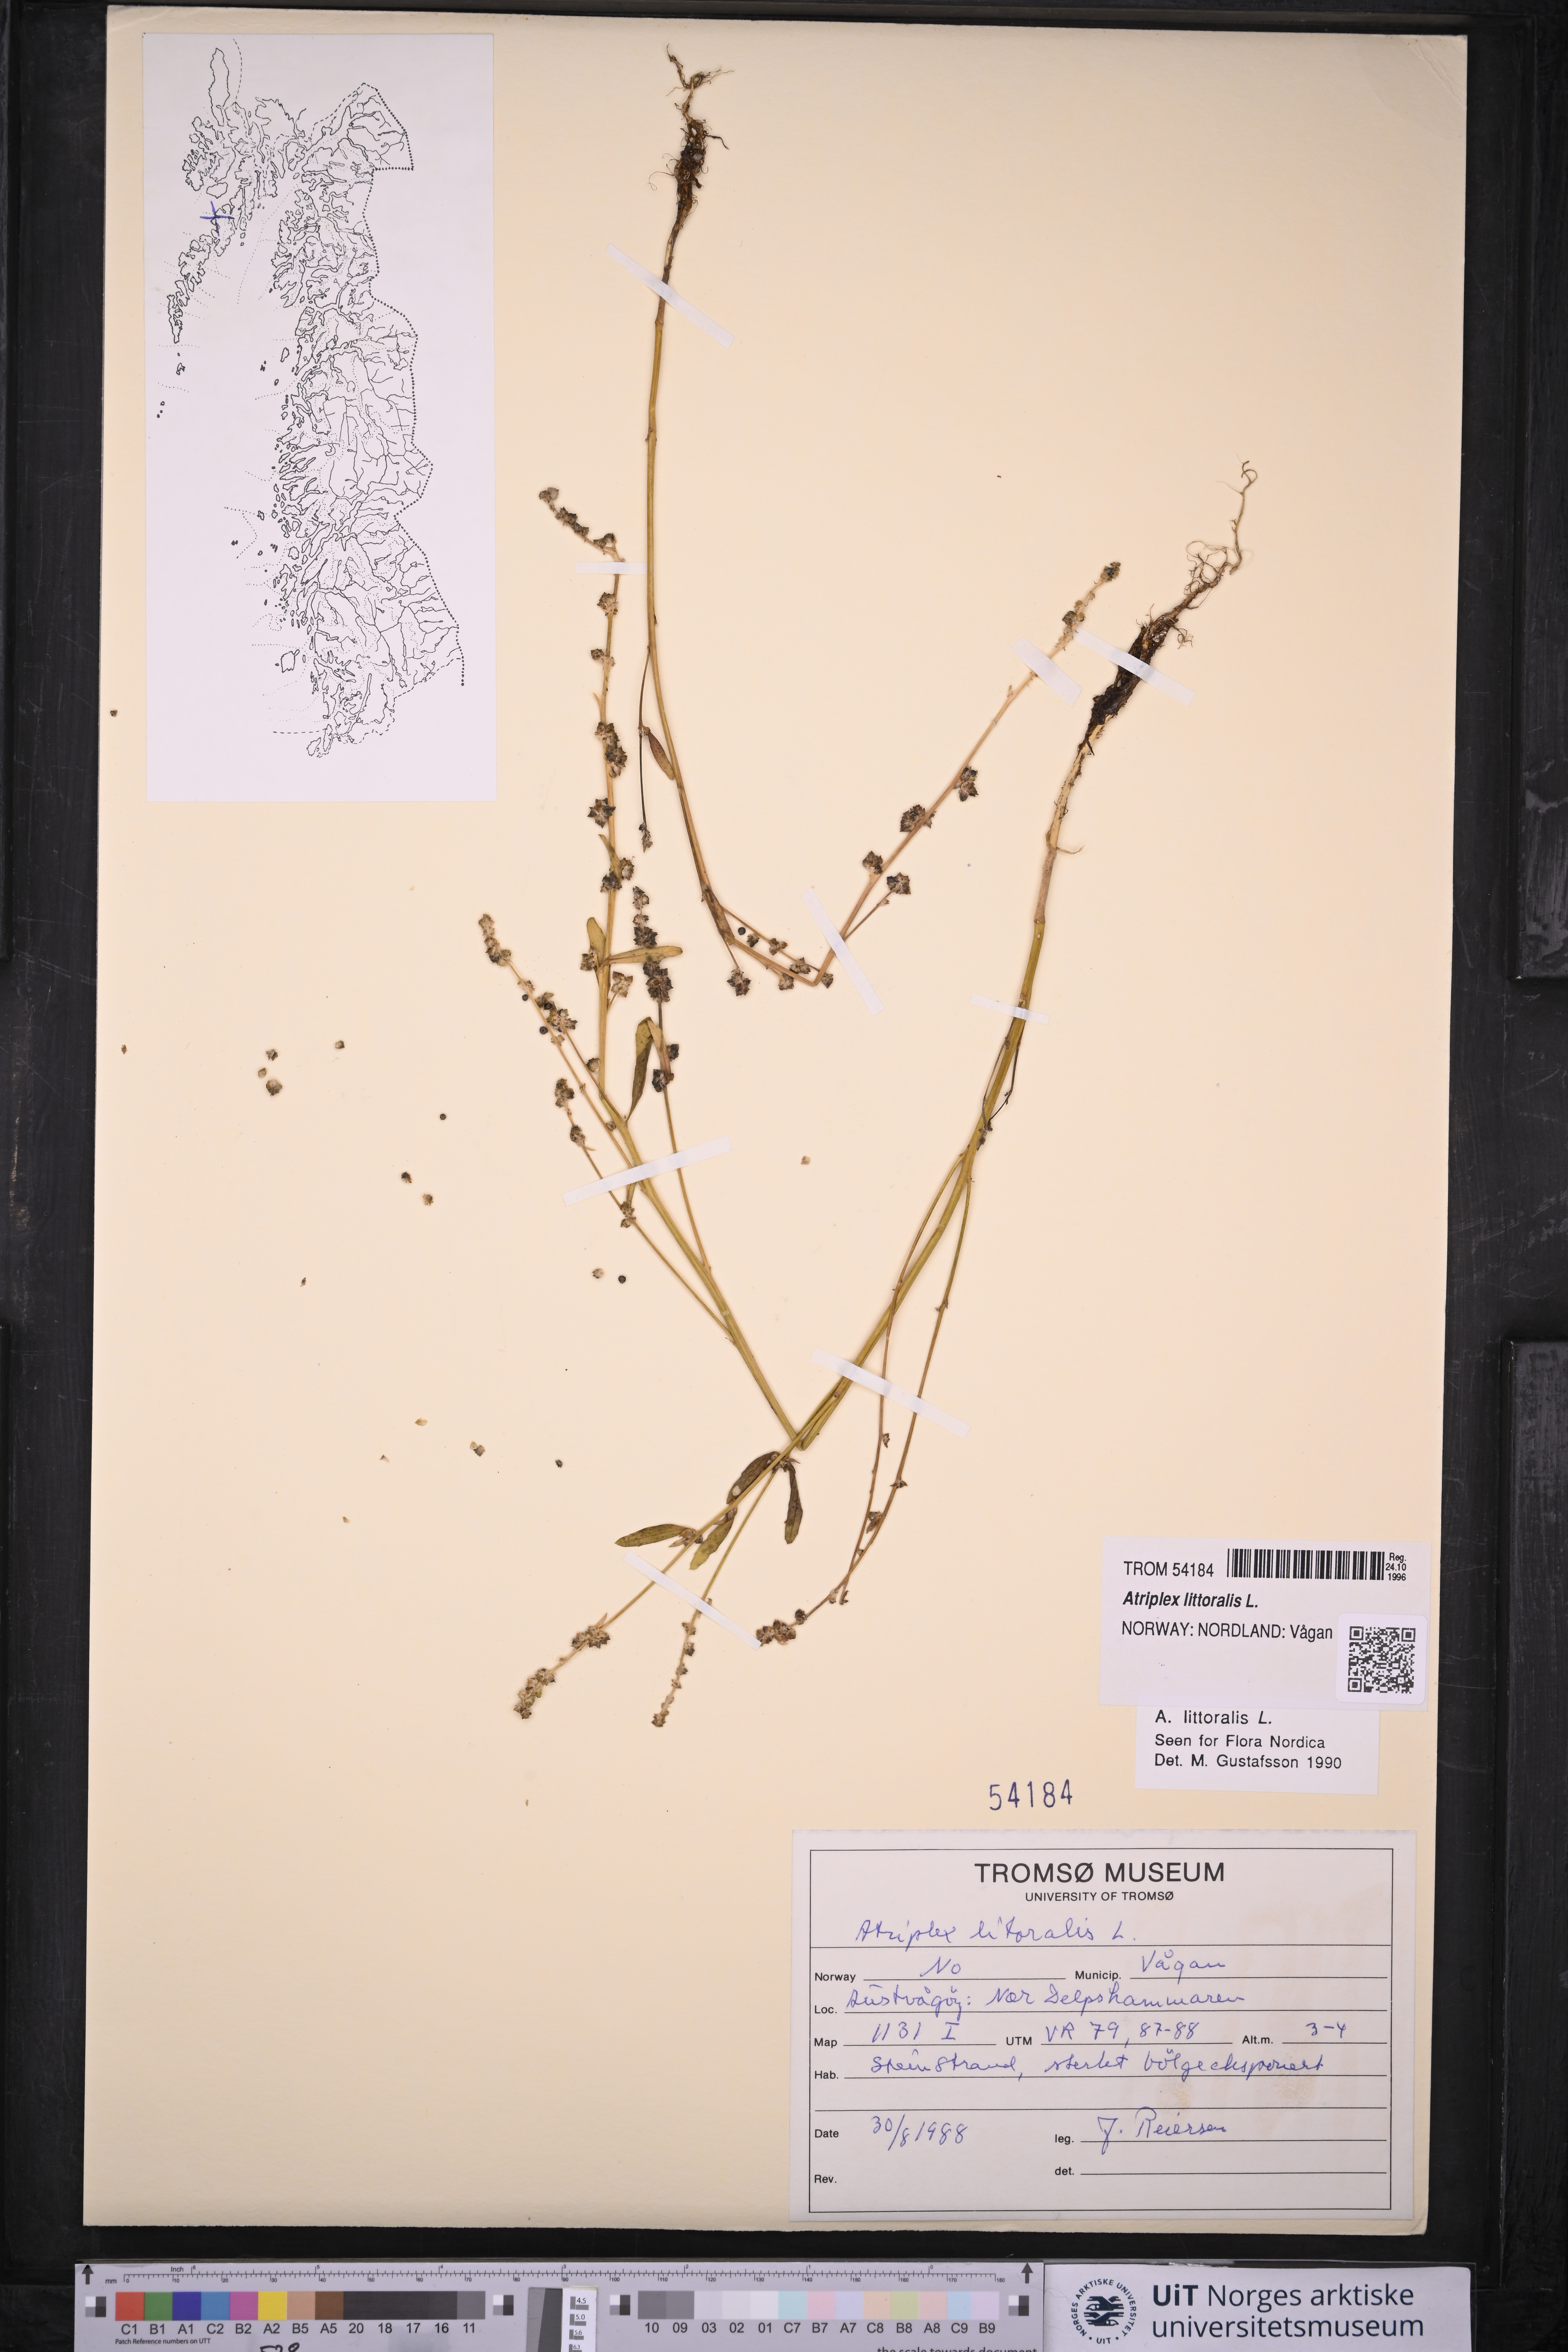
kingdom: Plantae
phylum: Tracheophyta
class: Magnoliopsida
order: Caryophyllales
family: Amaranthaceae
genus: Atriplex
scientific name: Atriplex littoralis
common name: Grass-leaved orache
